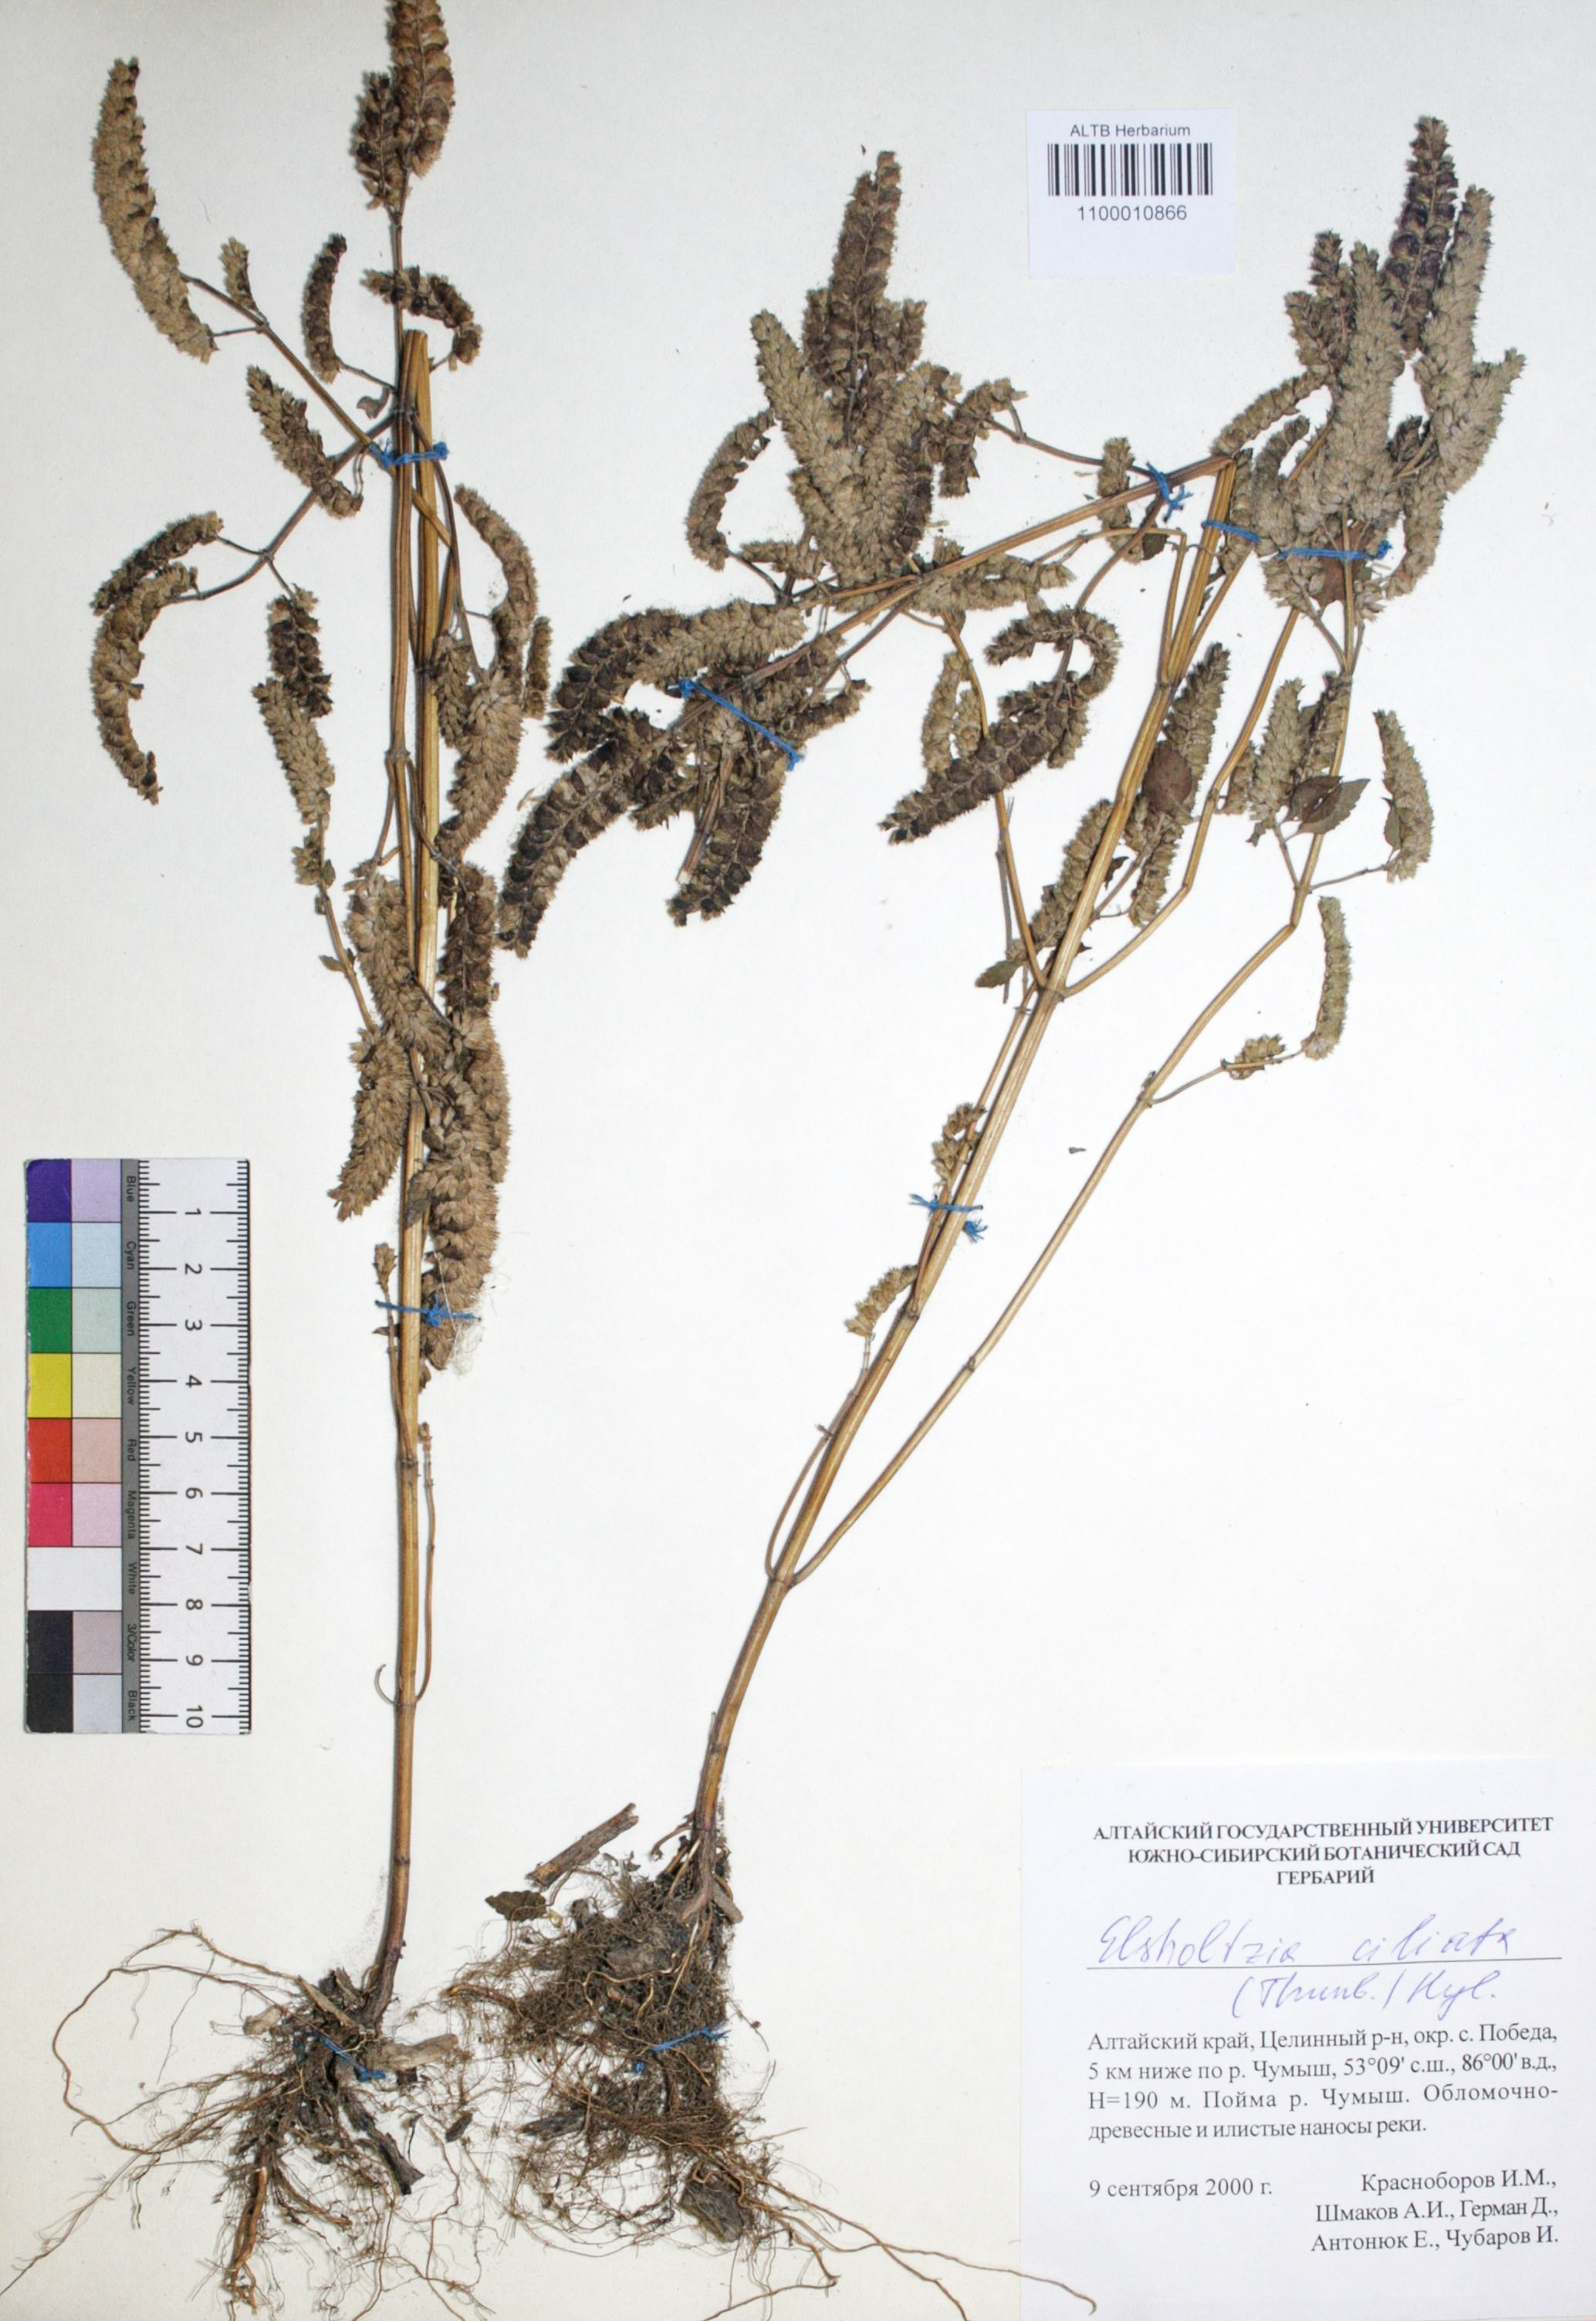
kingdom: Plantae
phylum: Tracheophyta
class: Magnoliopsida
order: Lamiales
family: Lamiaceae
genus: Elsholtzia
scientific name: Elsholtzia ciliata
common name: Ciliate elsholtzia
